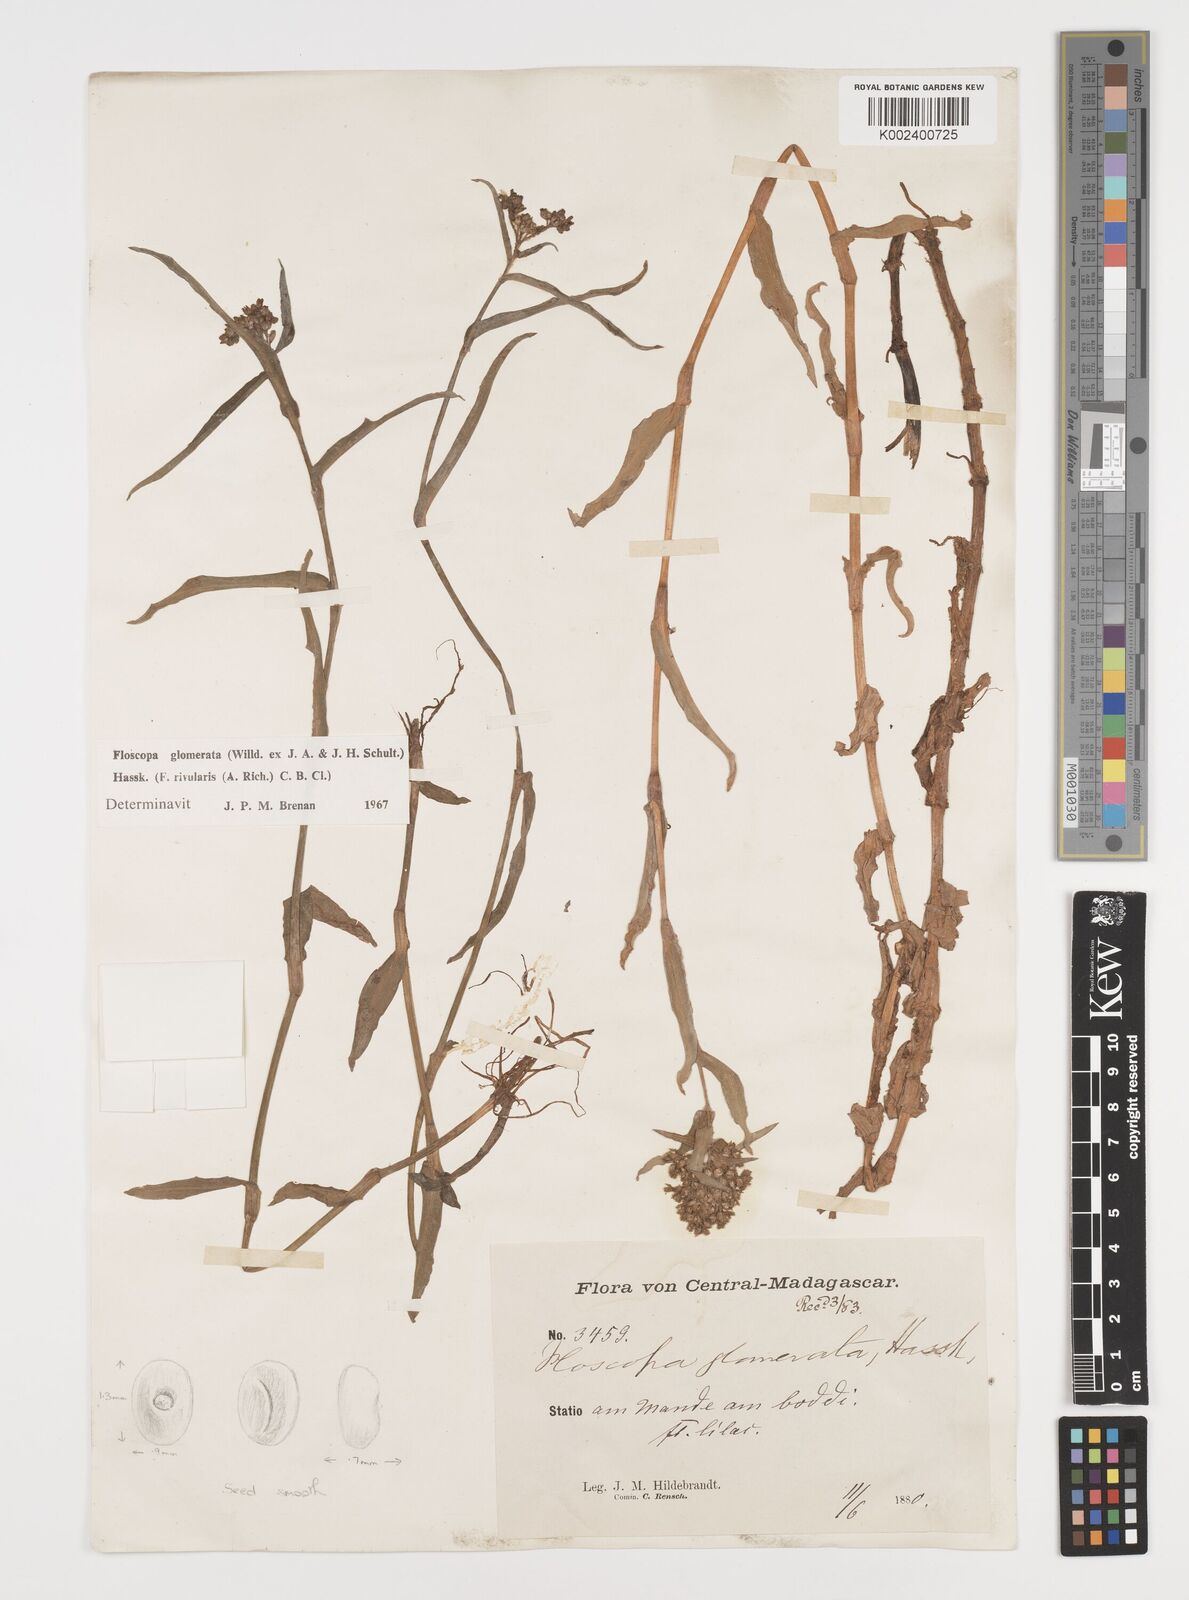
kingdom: Plantae
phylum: Tracheophyta
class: Liliopsida
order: Commelinales
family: Commelinaceae
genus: Floscopa
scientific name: Floscopa glomerata
